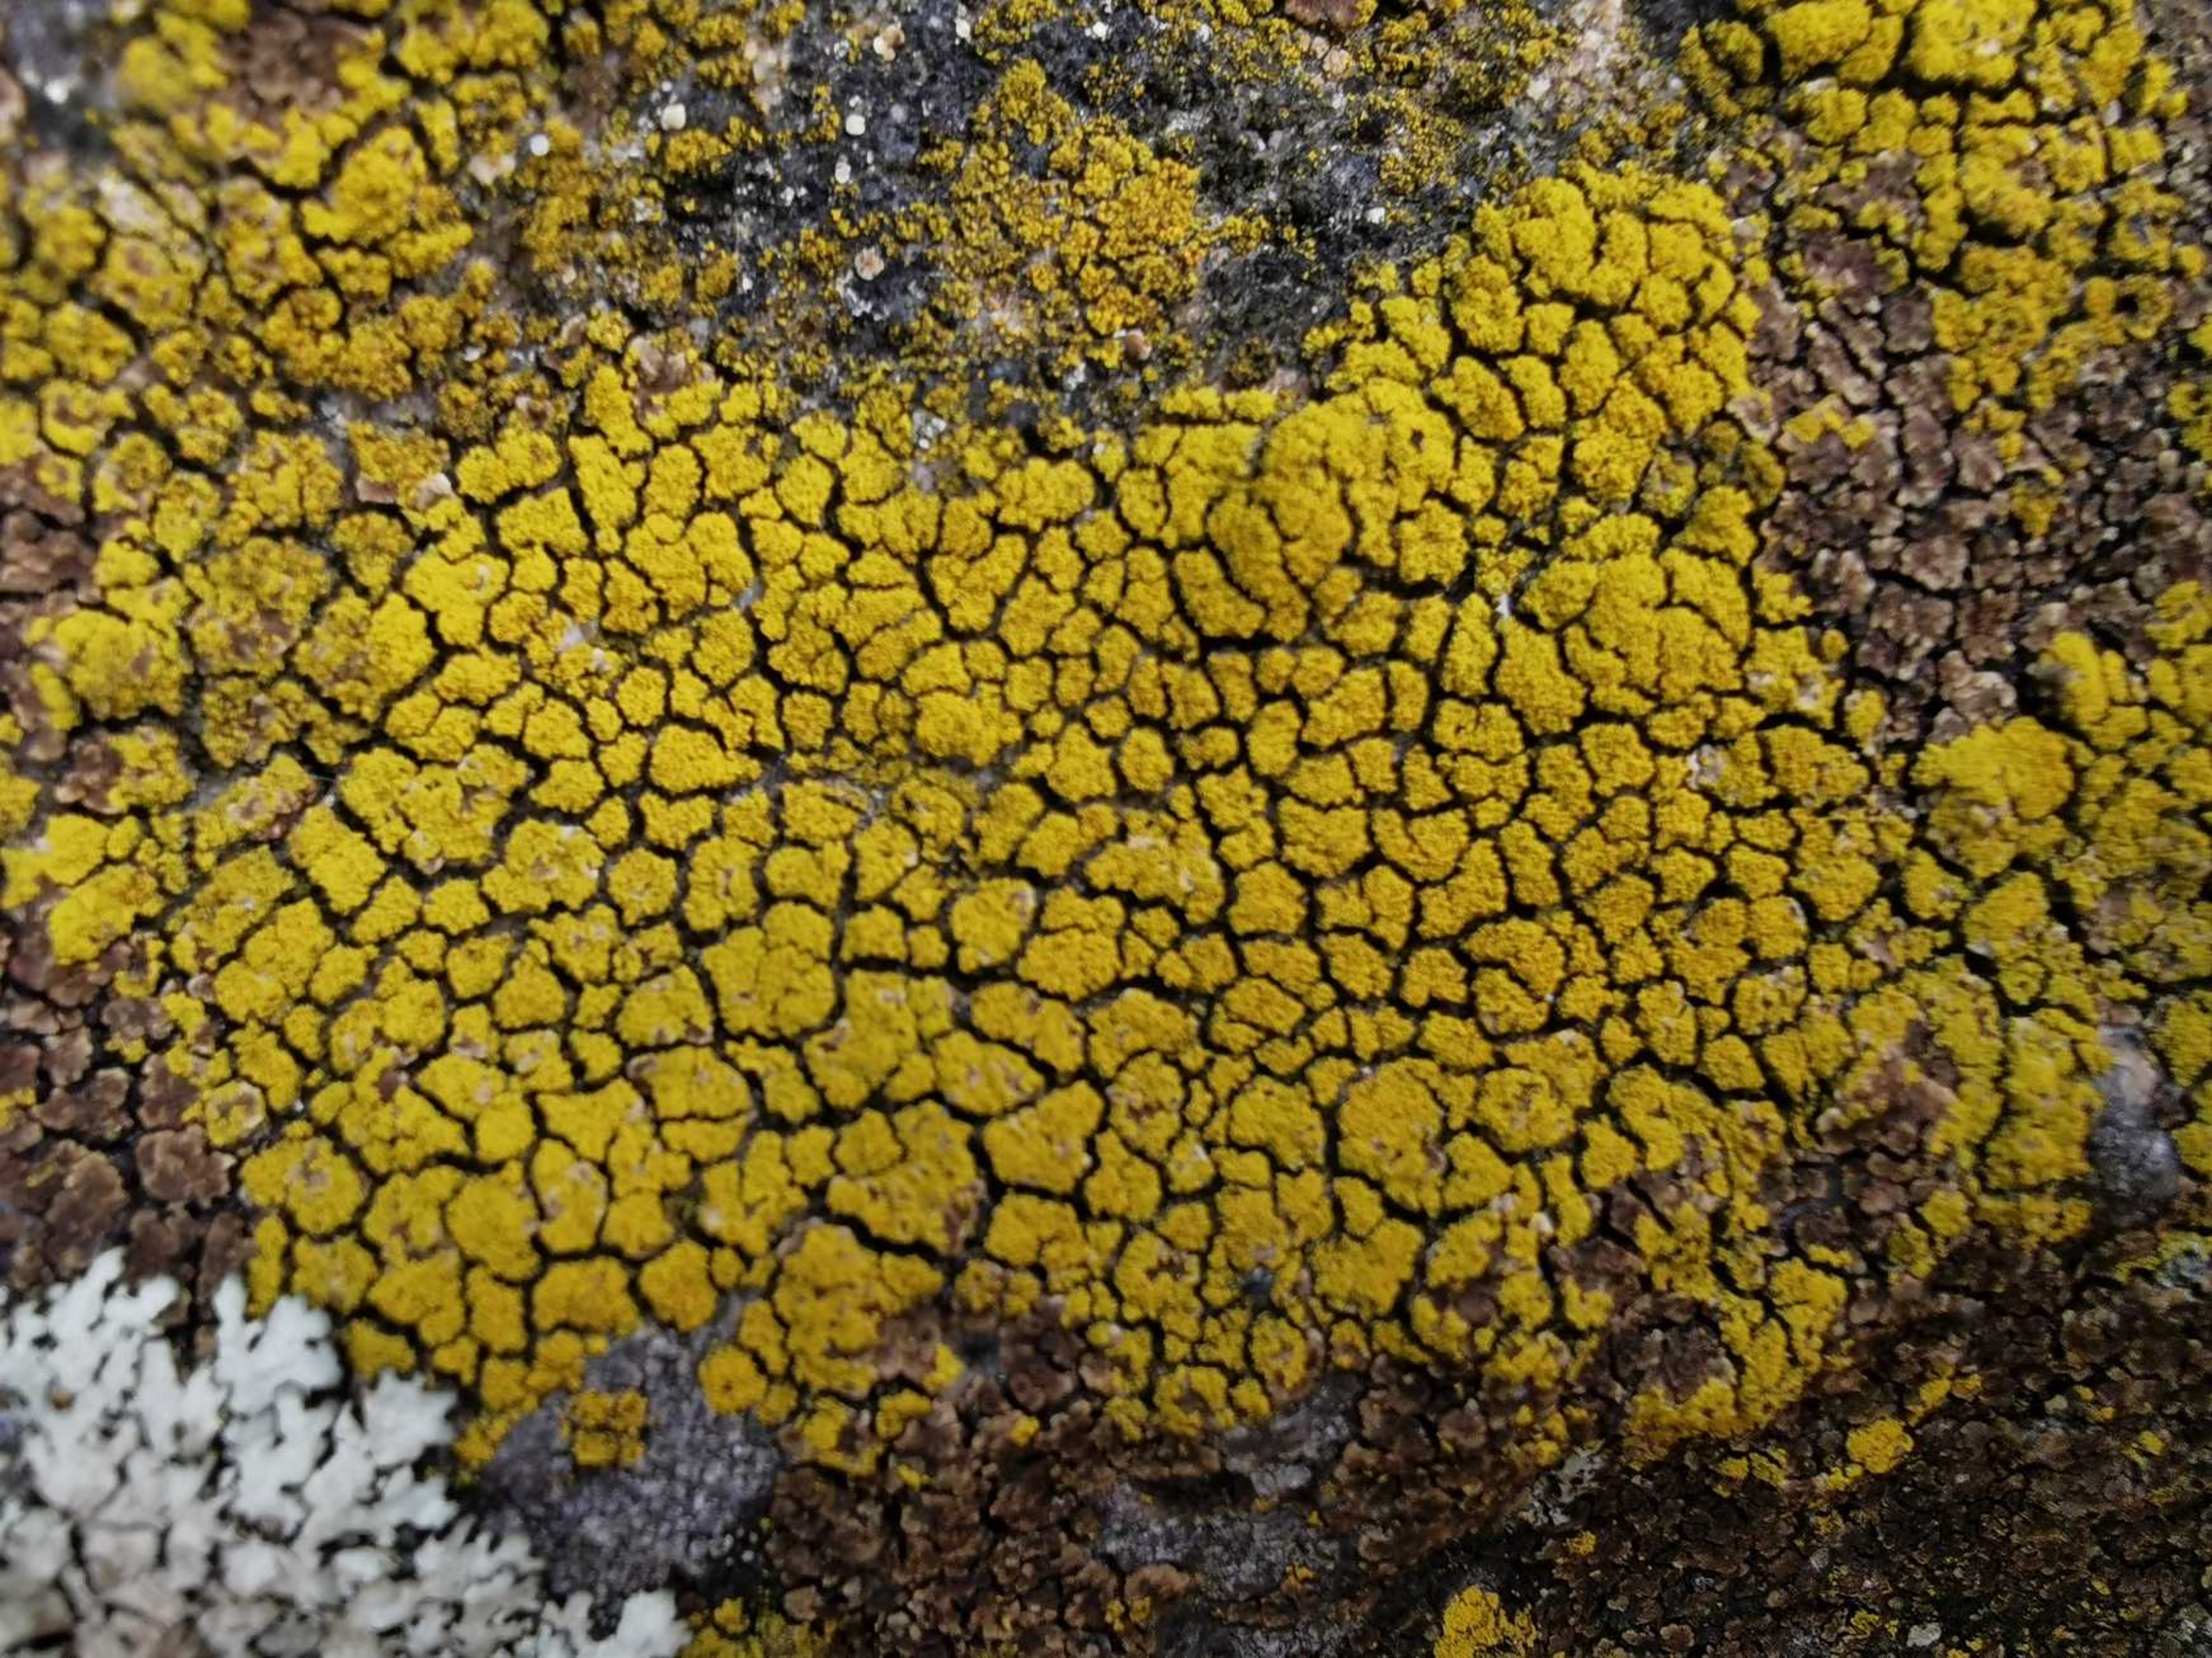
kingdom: Fungi
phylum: Ascomycota
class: Candelariomycetes
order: Candelariales
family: Candelariaceae
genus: Candelariella
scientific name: Candelariella coralliza
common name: Pude-æggeblommelav
